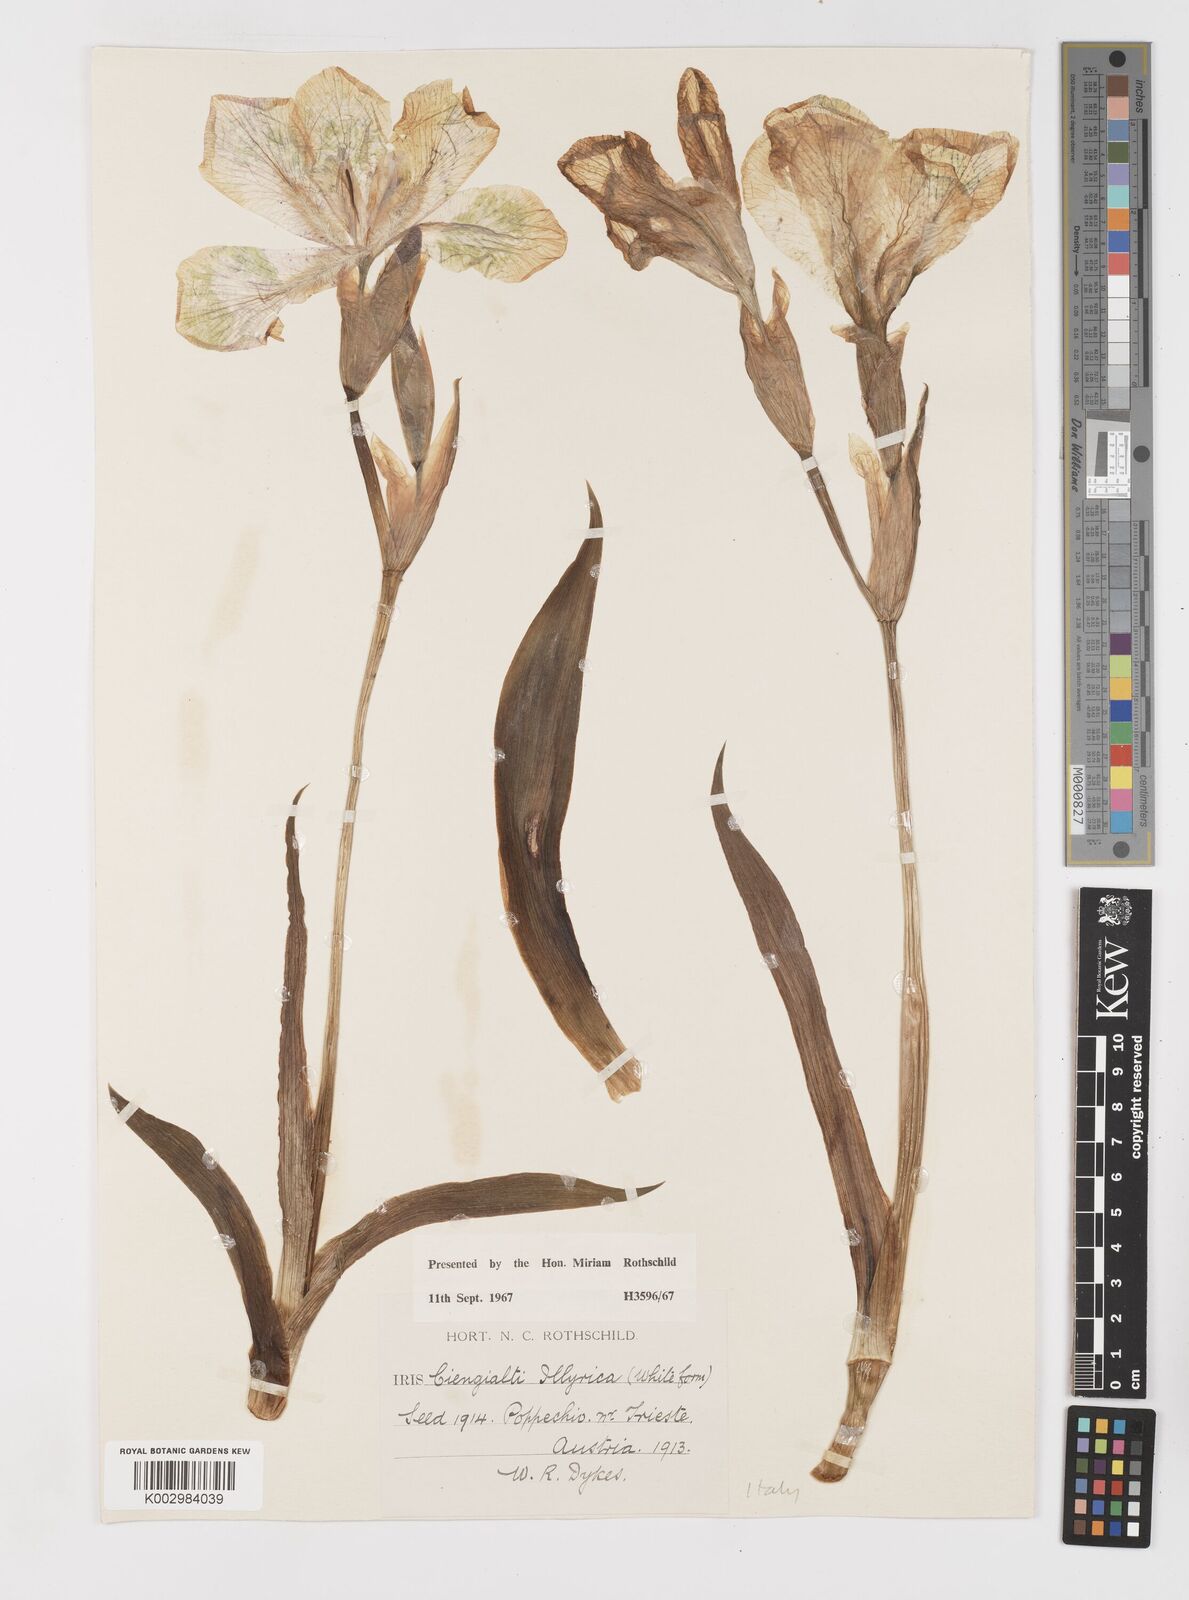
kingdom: Plantae
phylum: Tracheophyta
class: Liliopsida
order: Asparagales
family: Iridaceae
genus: Iris
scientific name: Iris pallida
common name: Sweet iris
